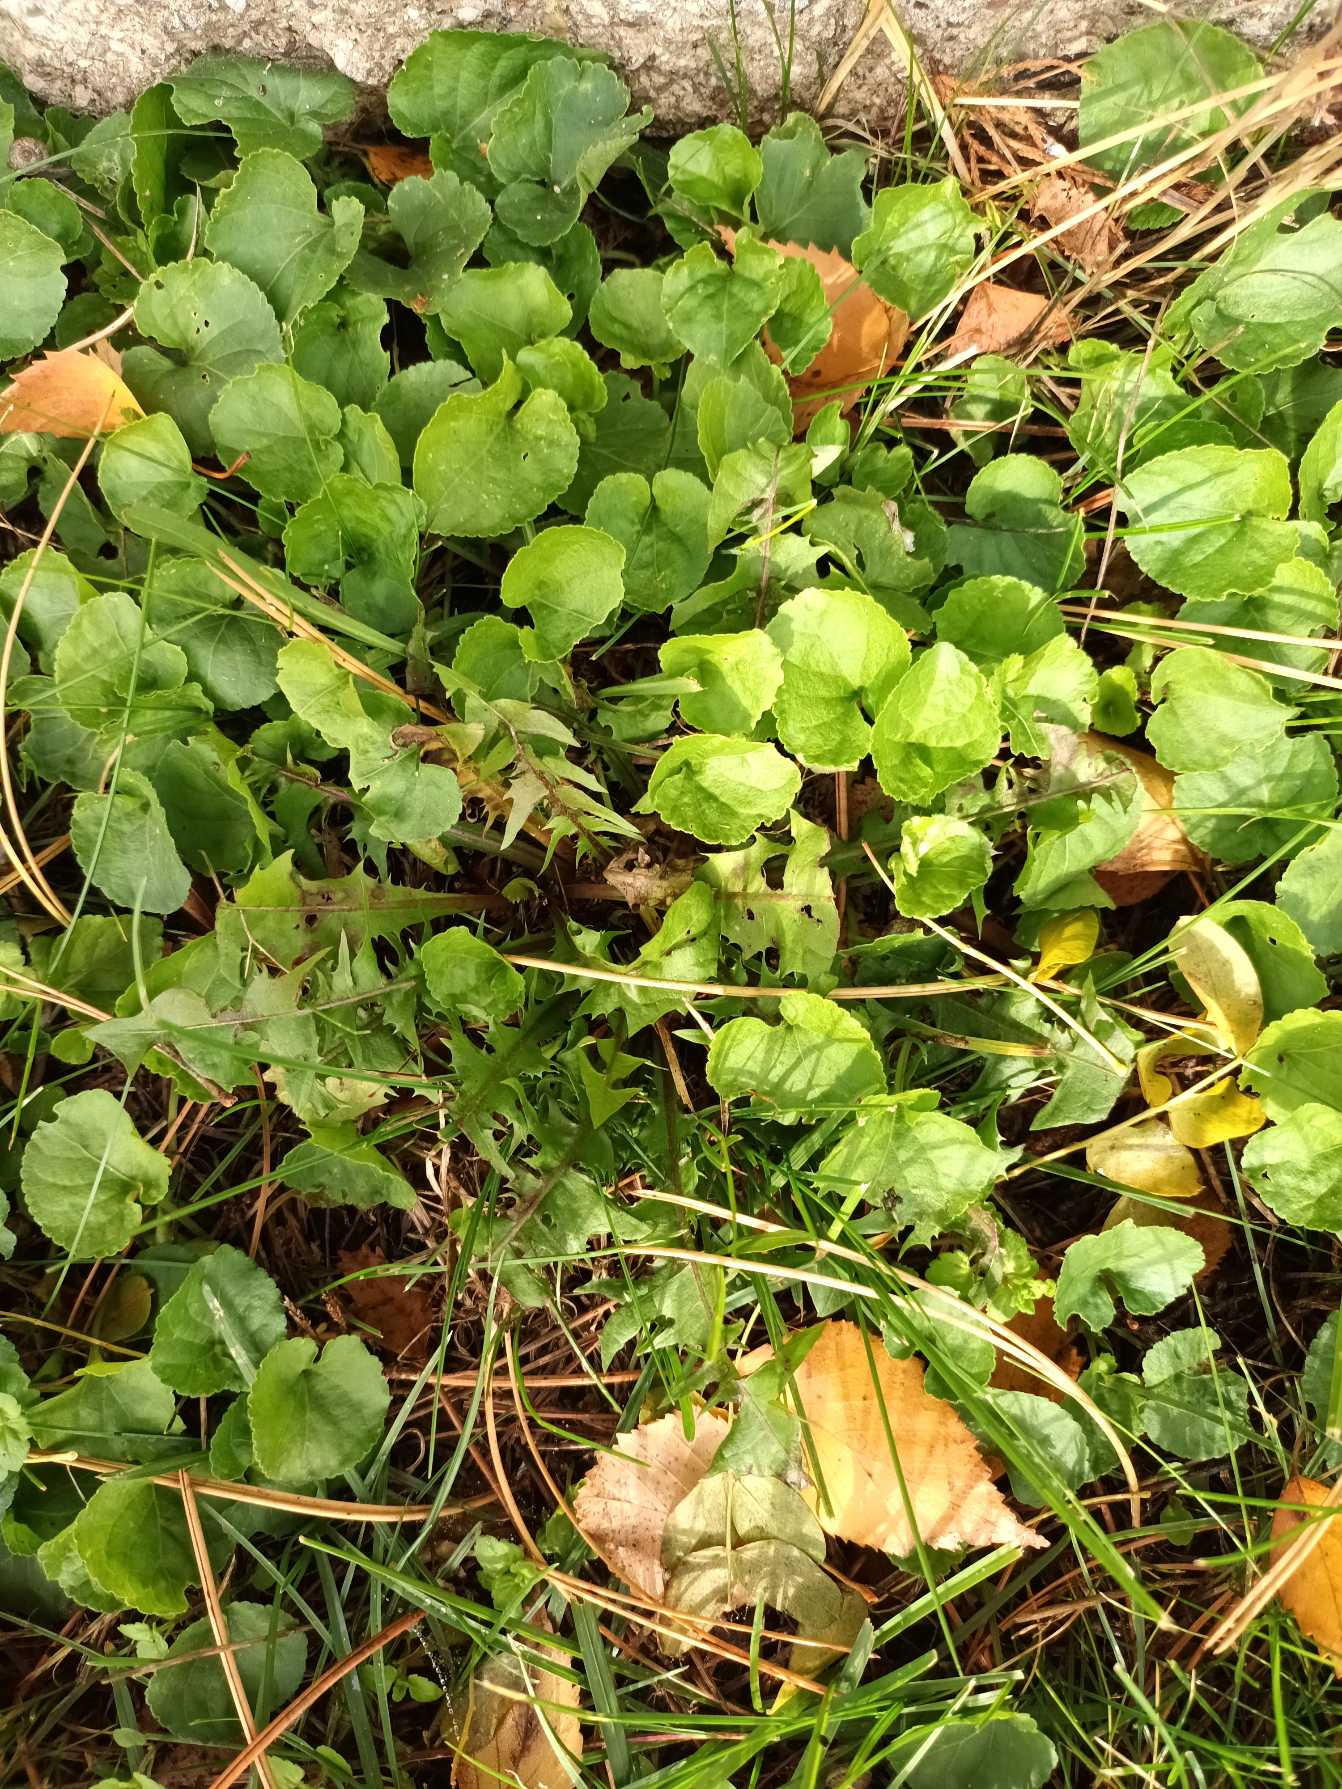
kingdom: Plantae
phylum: Tracheophyta
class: Magnoliopsida
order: Malpighiales
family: Violaceae
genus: Viola
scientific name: Viola odorata
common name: Marts-viol
